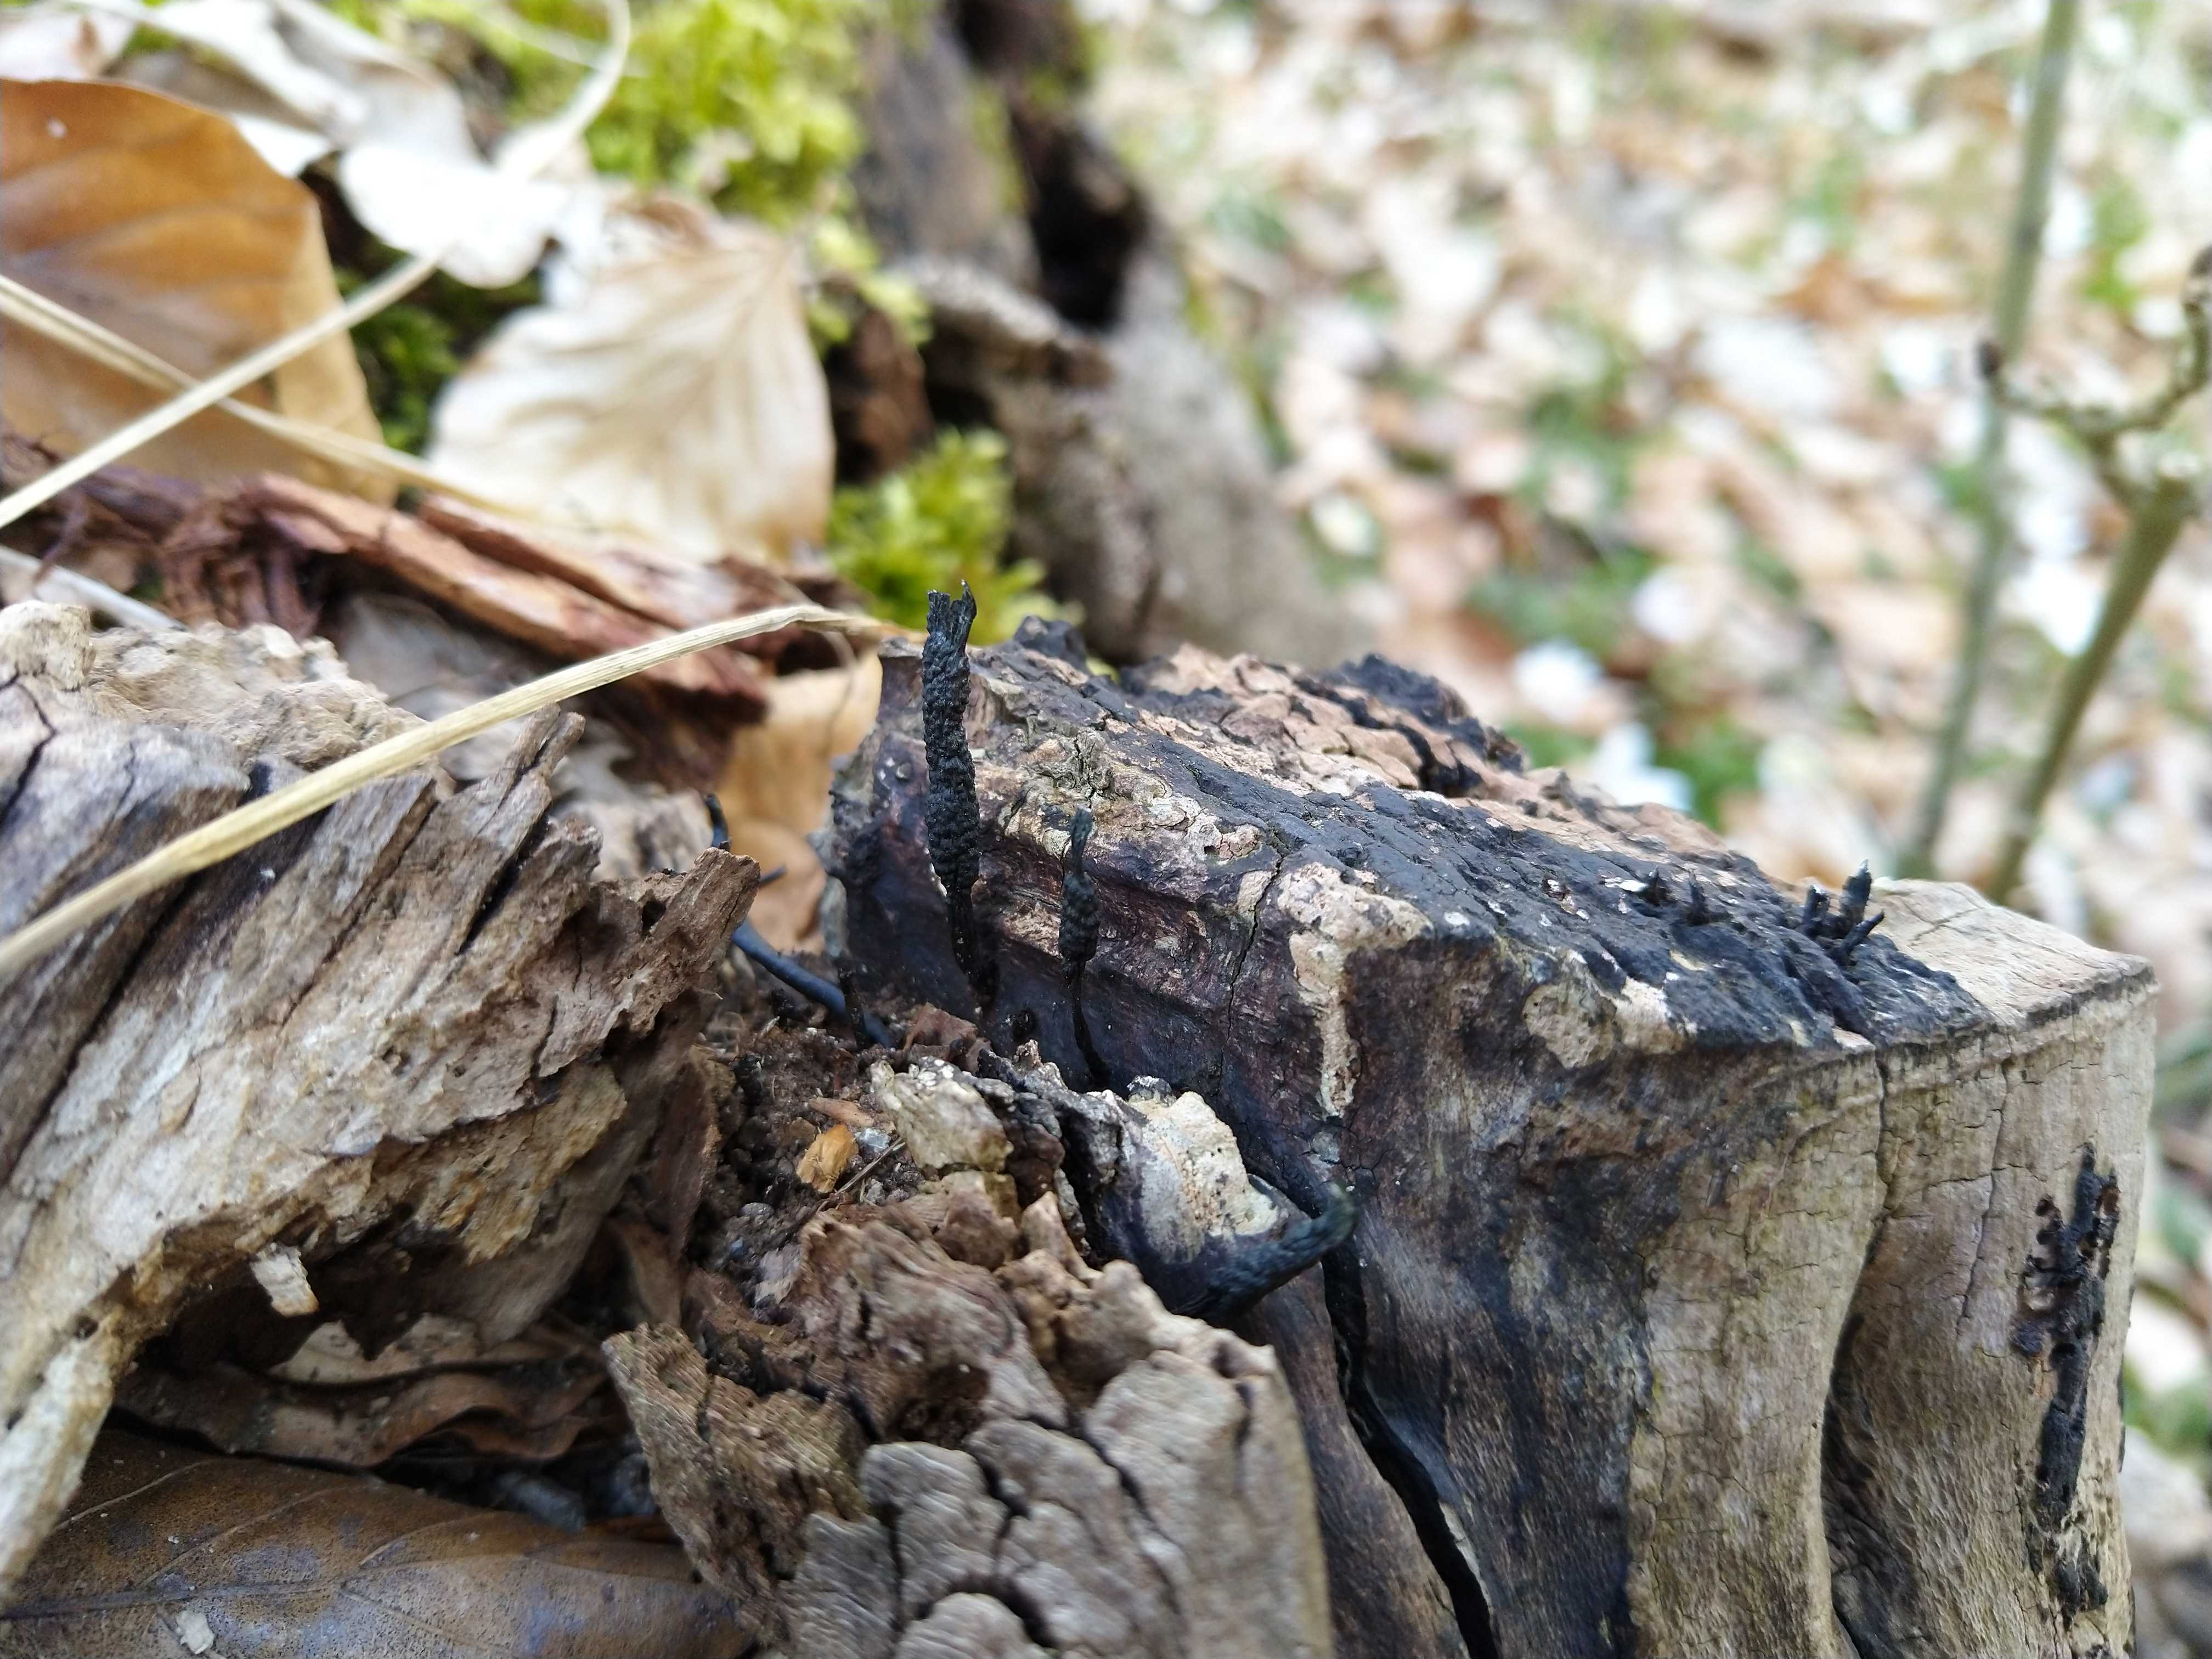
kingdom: Fungi
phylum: Ascomycota
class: Sordariomycetes
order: Xylariales
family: Xylariaceae
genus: Xylaria
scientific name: Xylaria hypoxylon
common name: grenet stødsvamp
